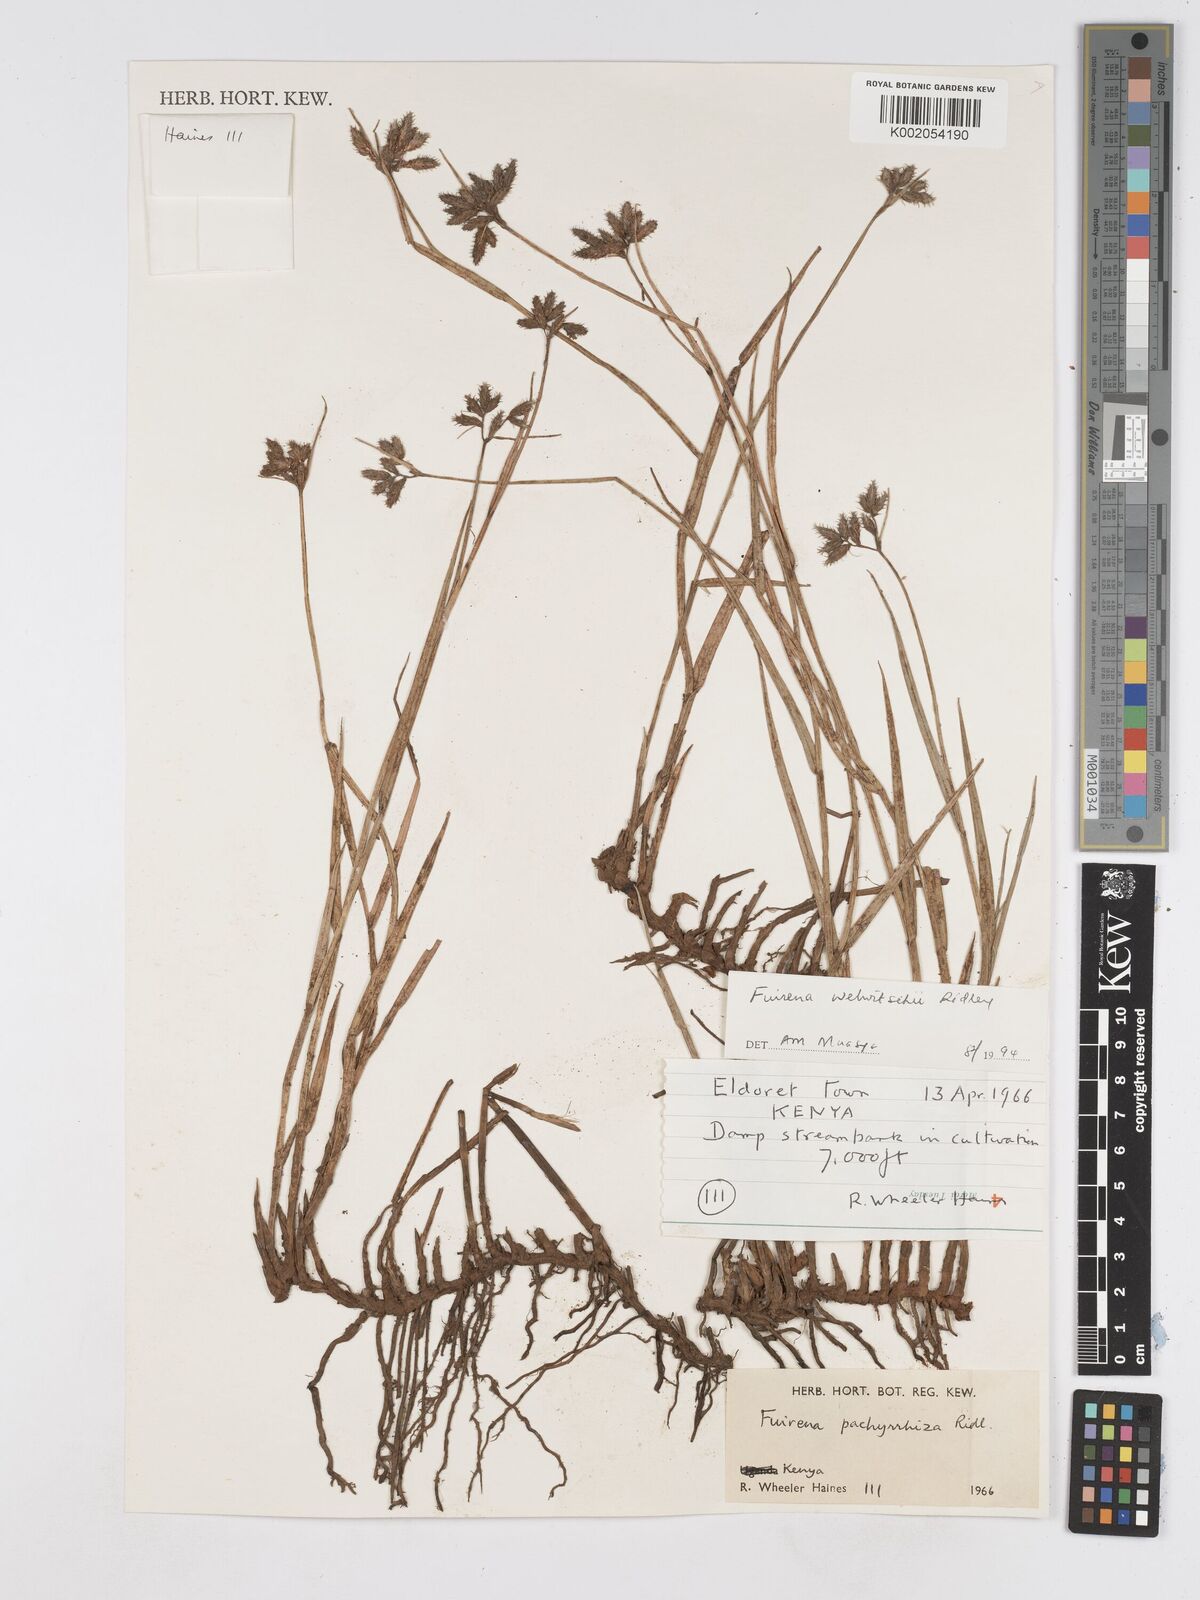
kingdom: Plantae
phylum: Tracheophyta
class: Liliopsida
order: Poales
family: Cyperaceae
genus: Fuirena
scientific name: Fuirena welwitschii
